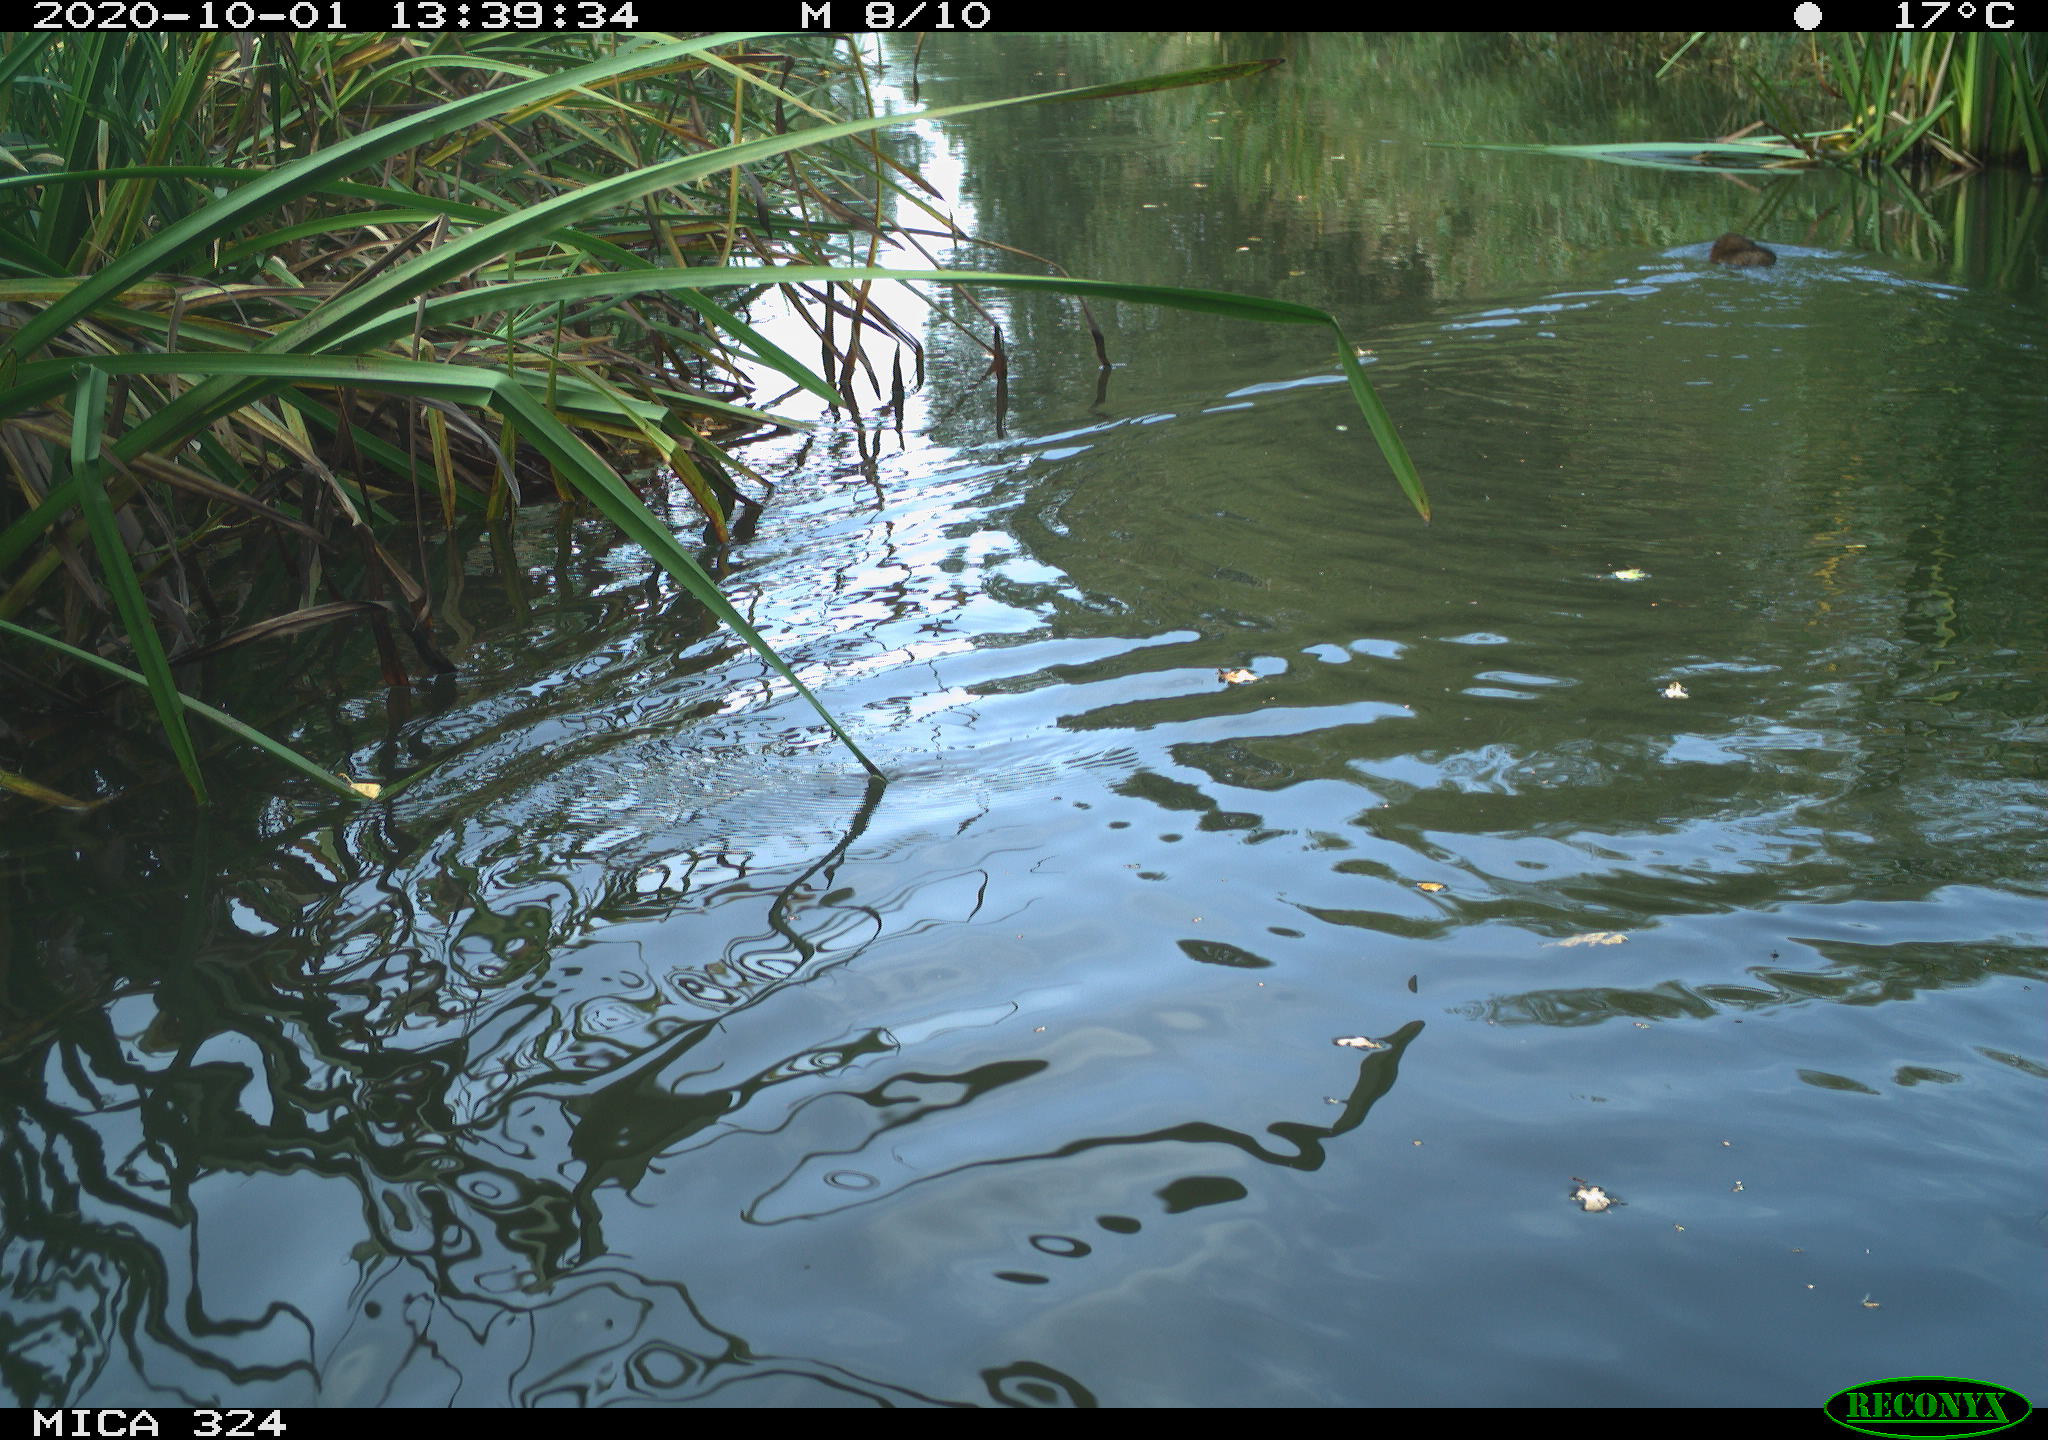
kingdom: Animalia
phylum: Chordata
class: Mammalia
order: Rodentia
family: Cricetidae
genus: Ondatra
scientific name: Ondatra zibethicus
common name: Muskrat
